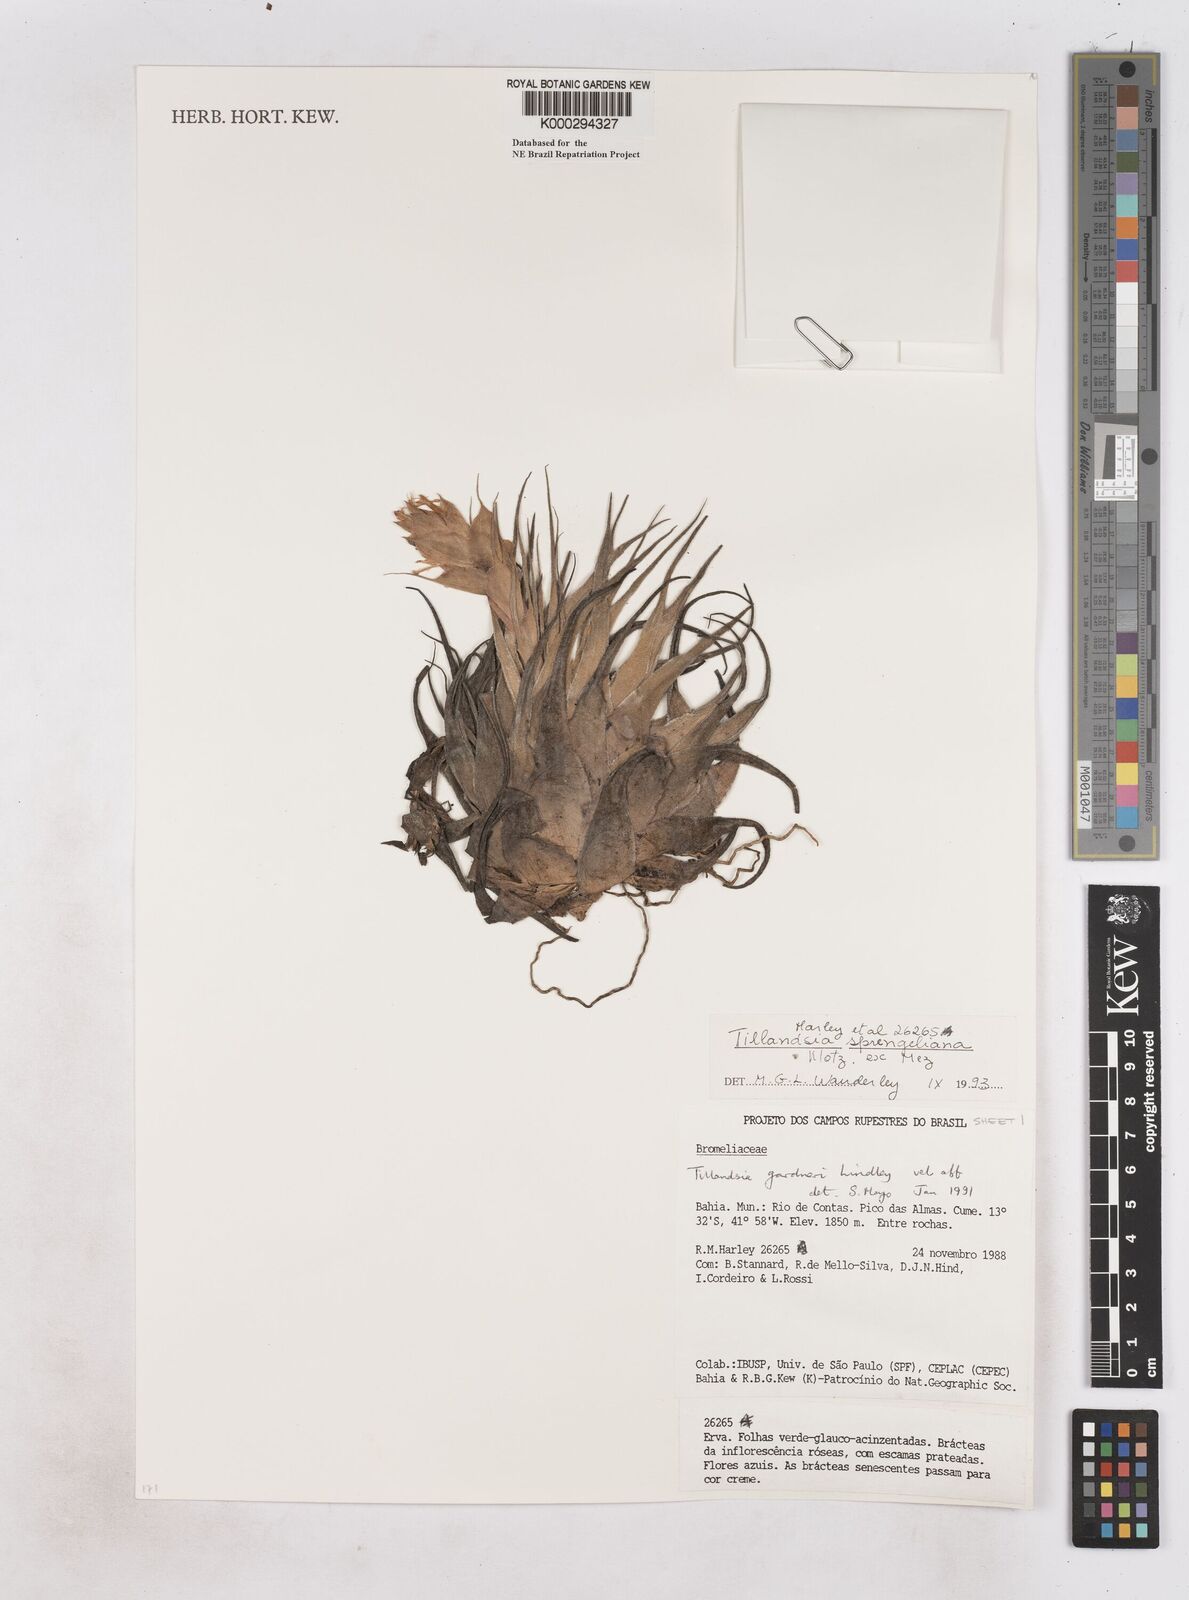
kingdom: Plantae
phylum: Tracheophyta
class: Liliopsida
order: Poales
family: Bromeliaceae
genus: Tillandsia
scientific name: Tillandsia sprengeliana
